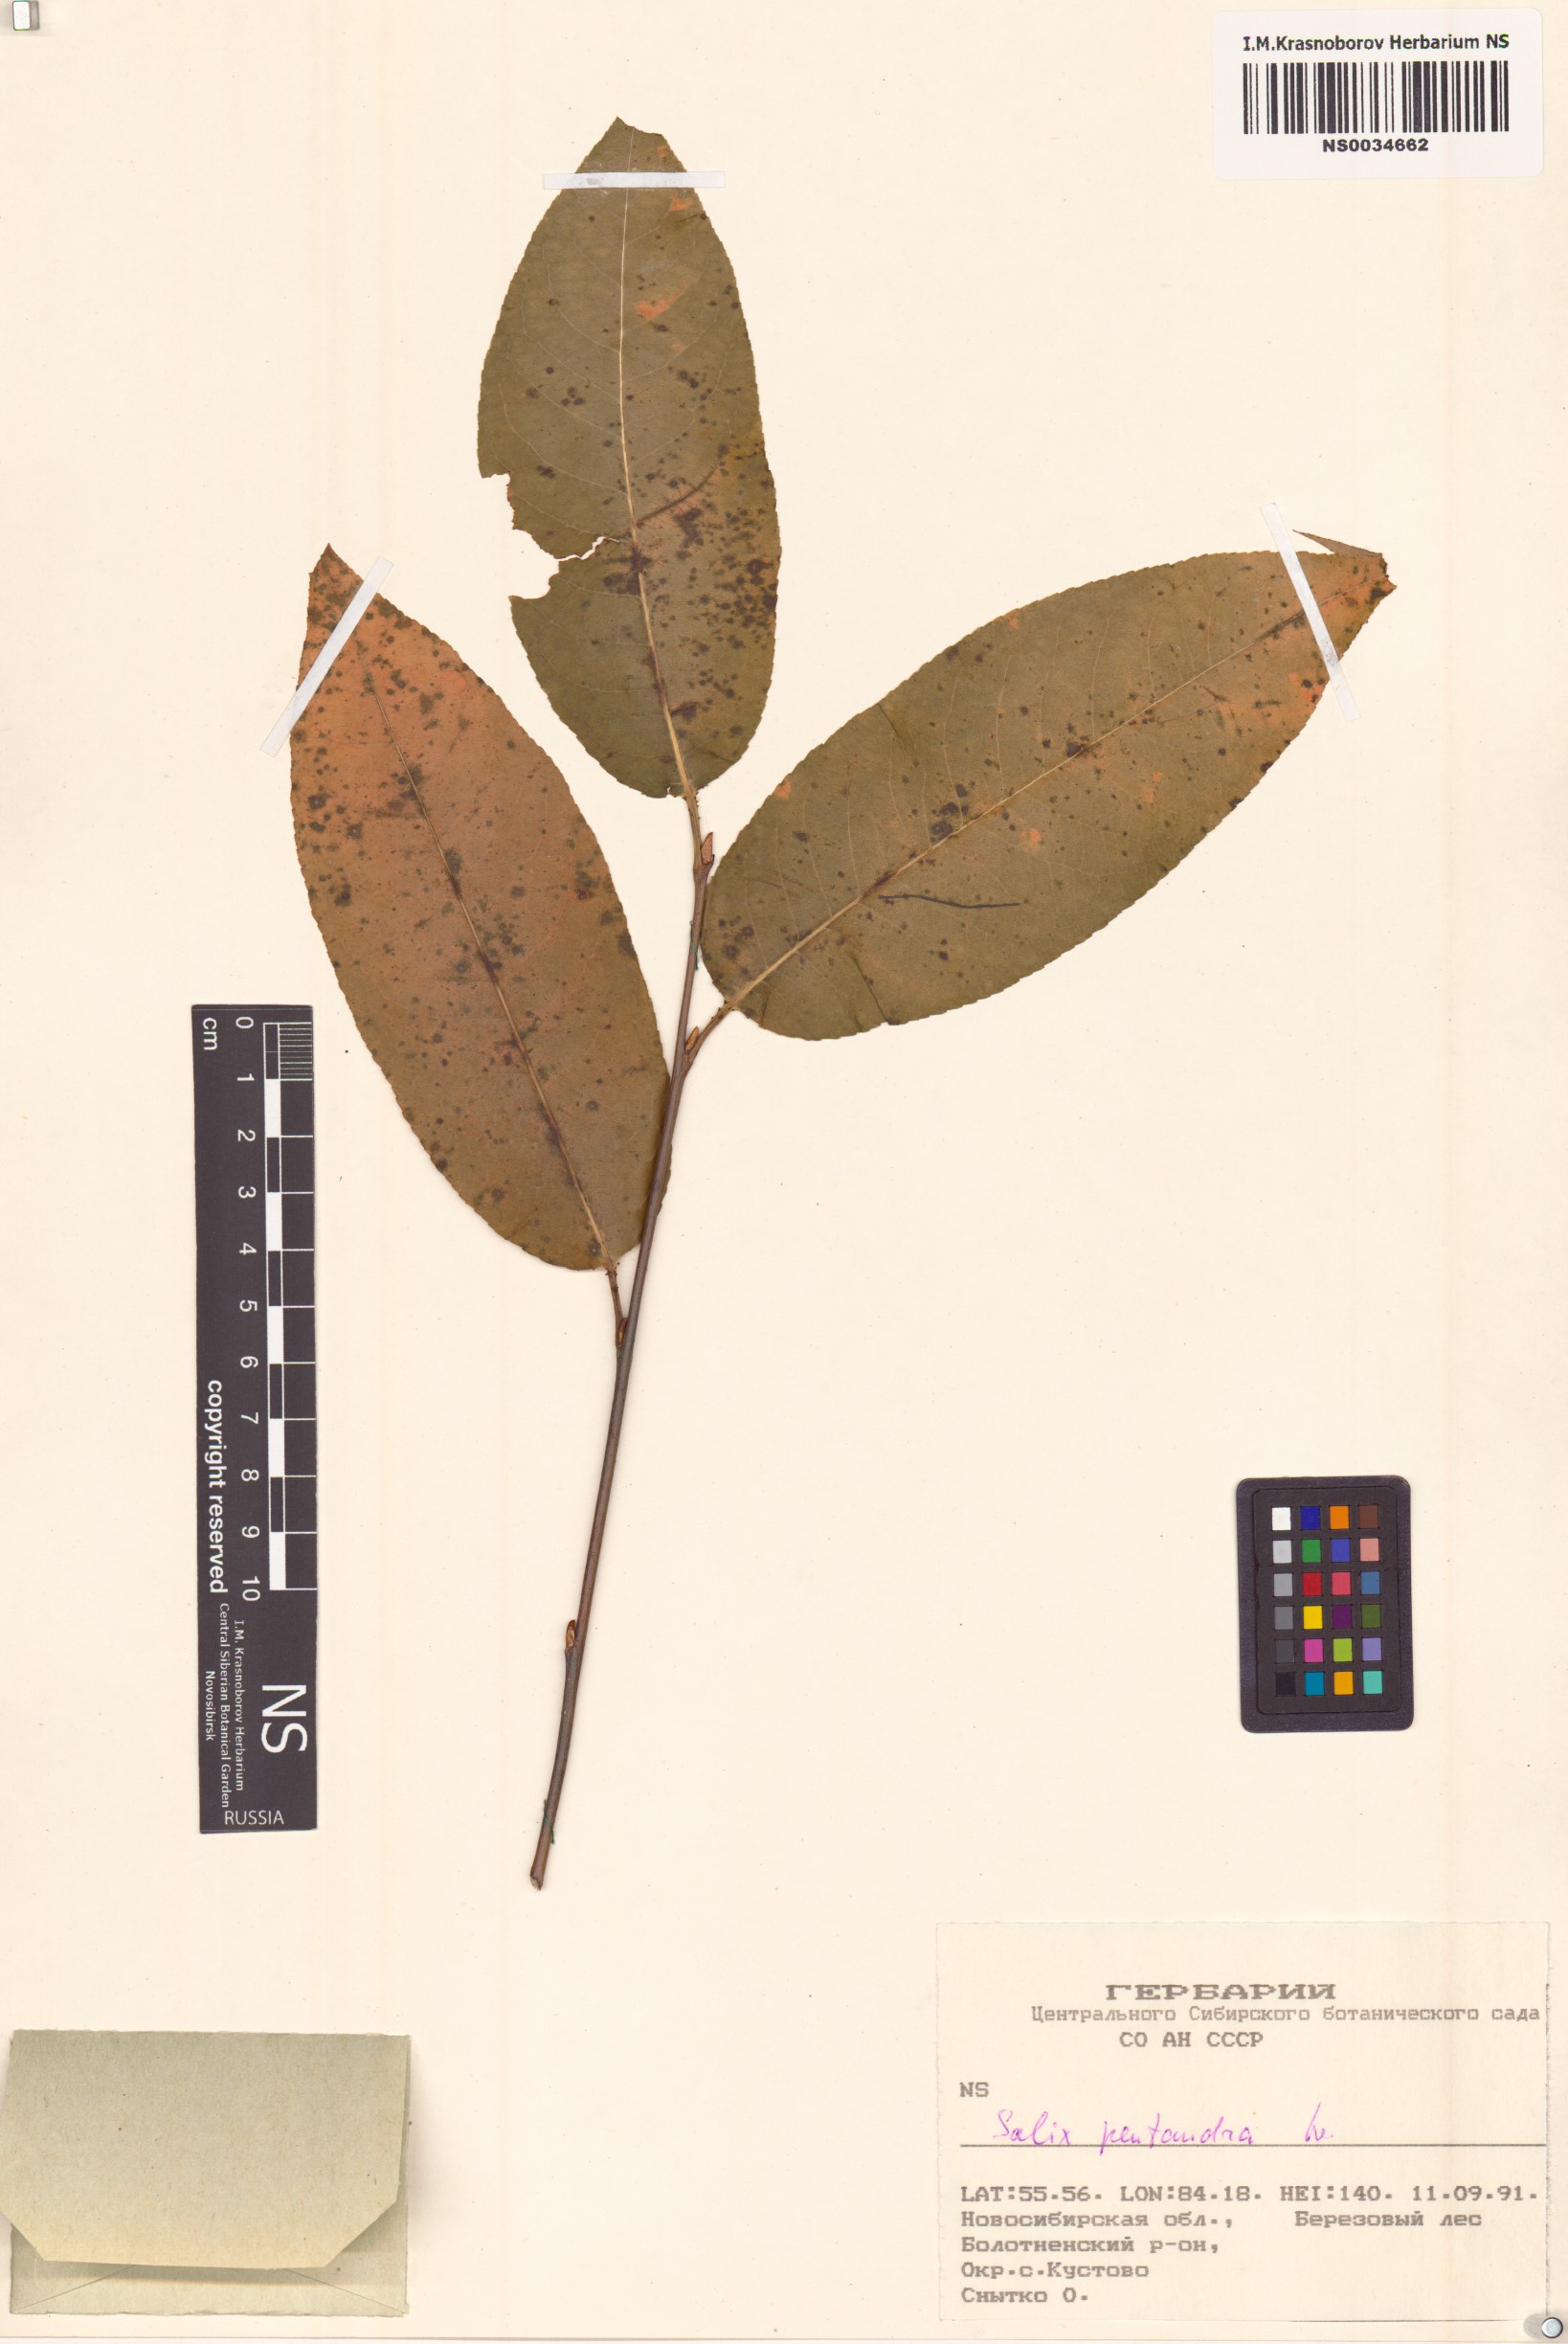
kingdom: Plantae
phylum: Tracheophyta
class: Magnoliopsida
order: Malpighiales
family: Salicaceae
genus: Salix
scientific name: Salix pentandra
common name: Bay willow
